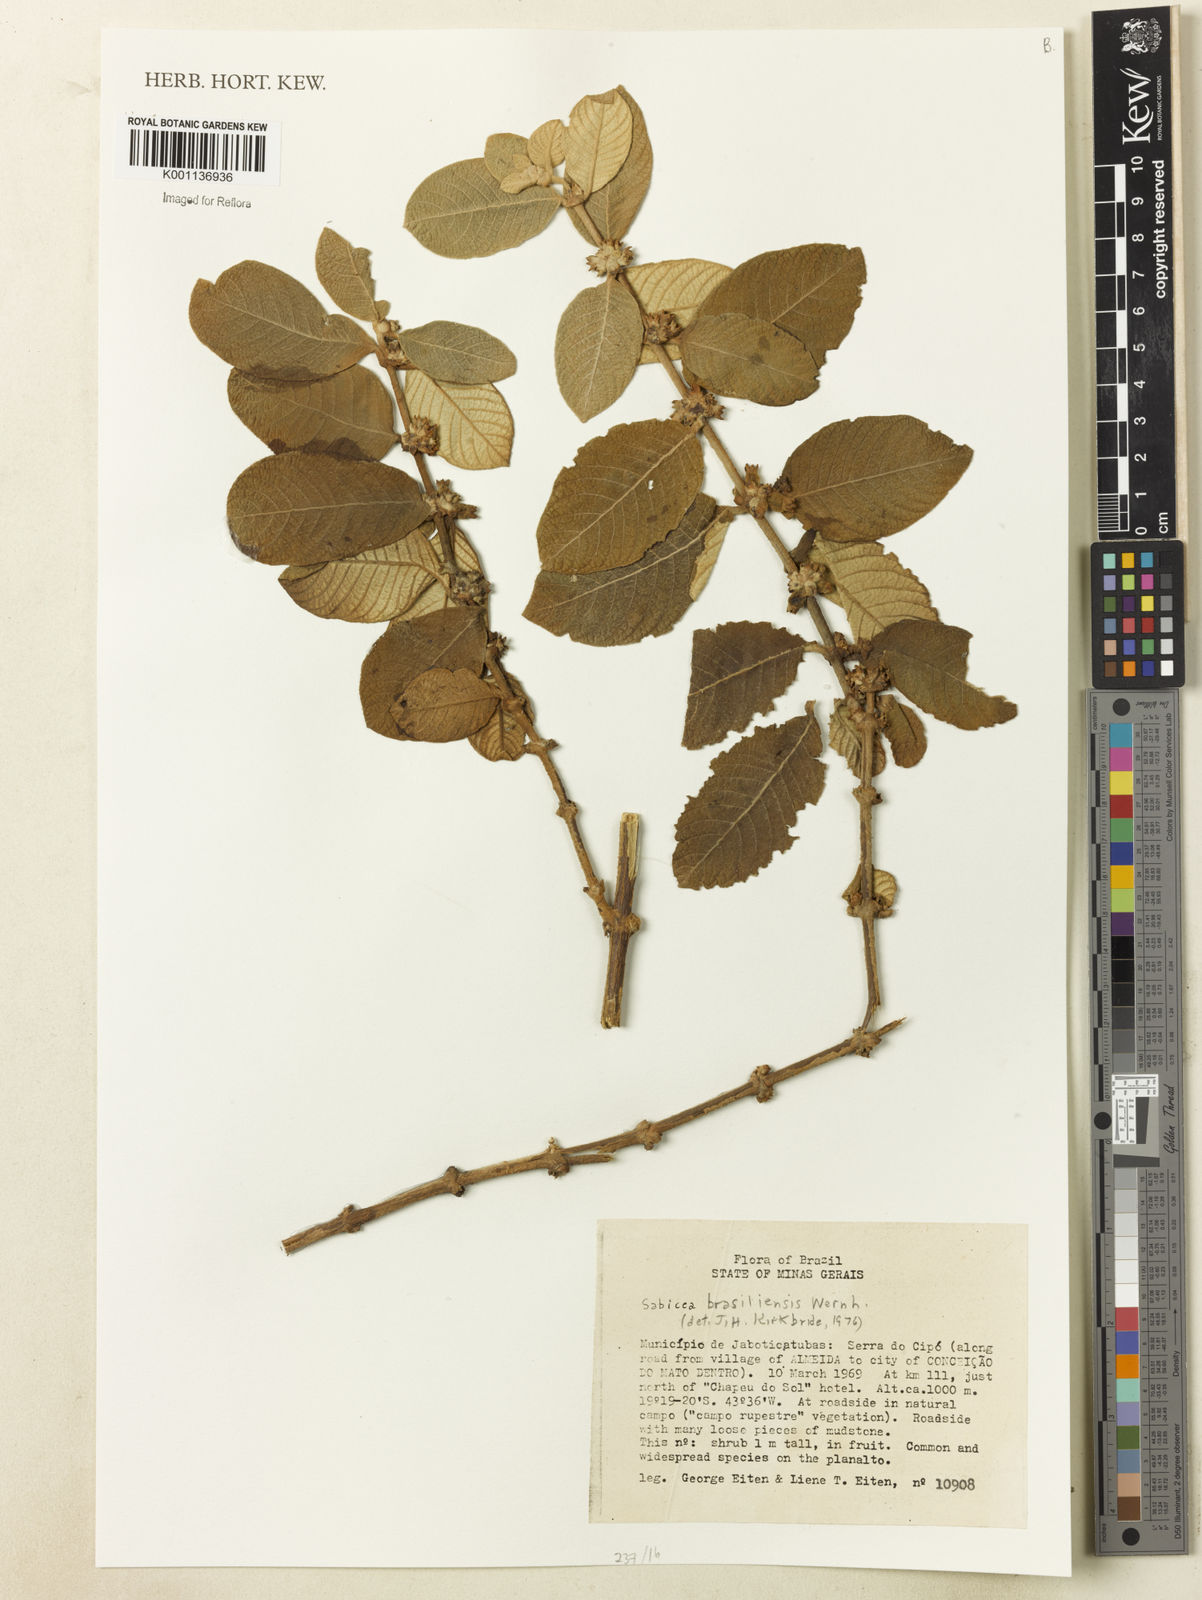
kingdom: Plantae
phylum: Tracheophyta
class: Magnoliopsida
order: Gentianales
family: Rubiaceae
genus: Sabicea
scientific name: Sabicea brasiliensis
